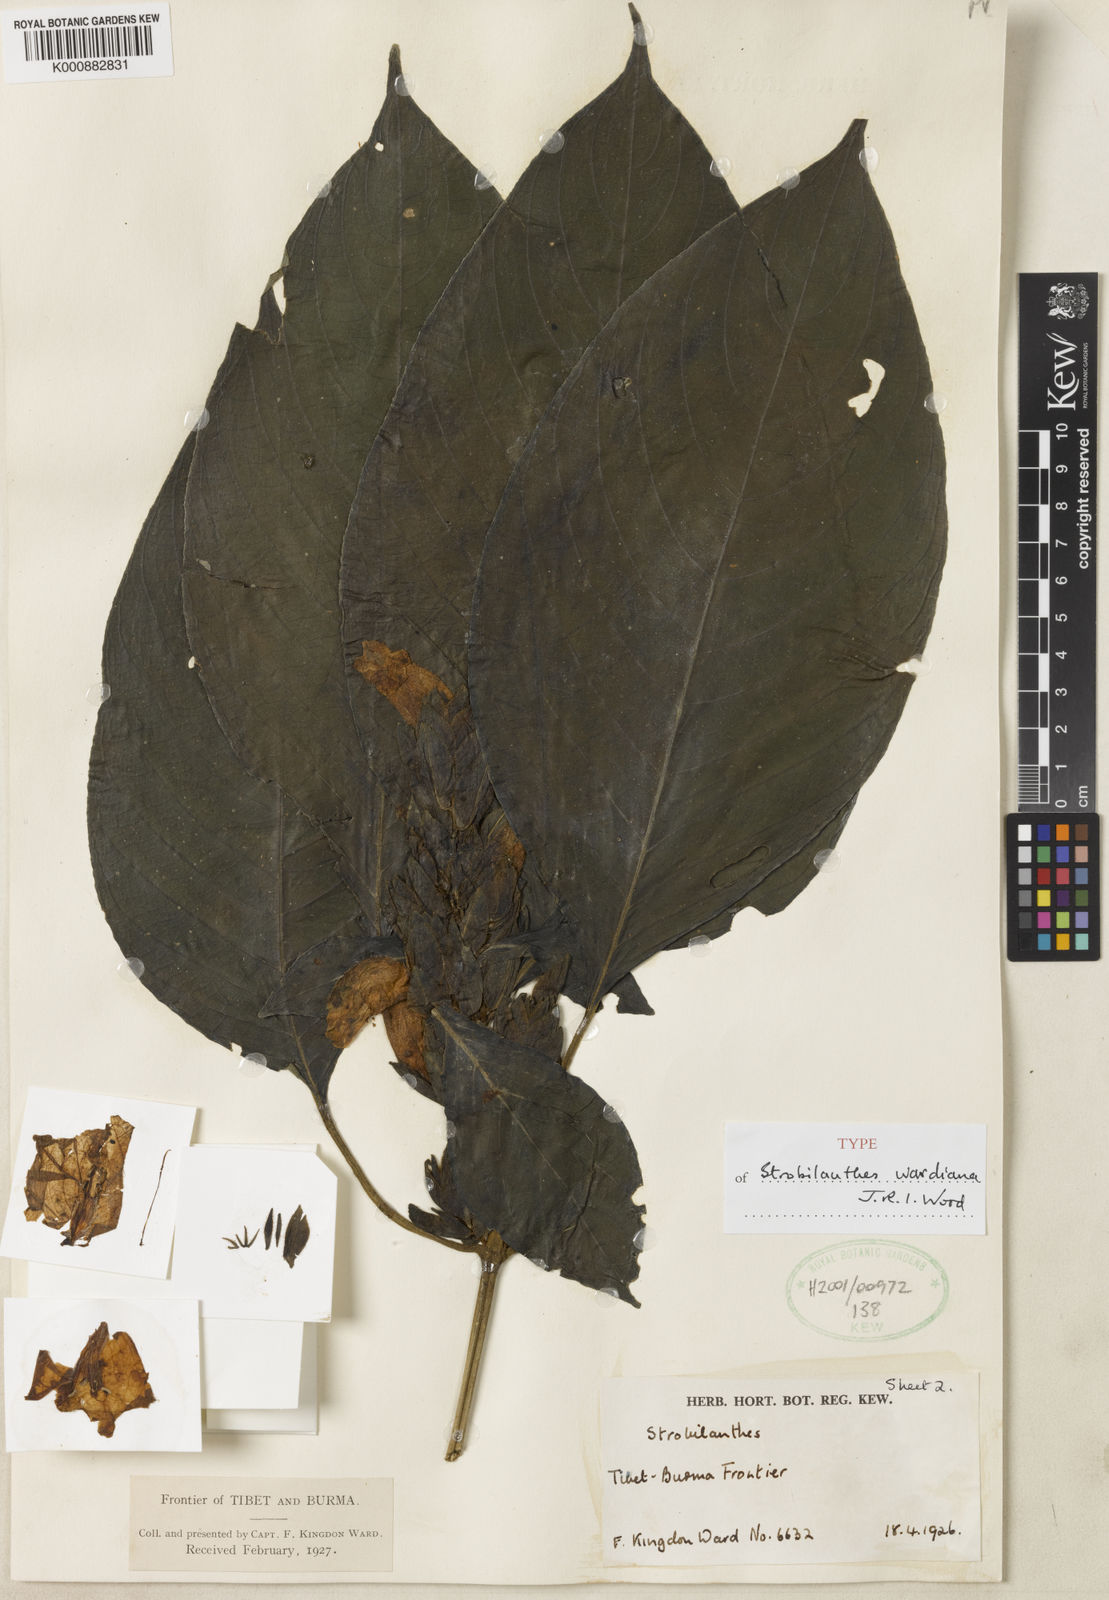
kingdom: Plantae
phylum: Tracheophyta
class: Magnoliopsida
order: Lamiales
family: Acanthaceae
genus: Strobilanthes
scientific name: Strobilanthes wardiana
